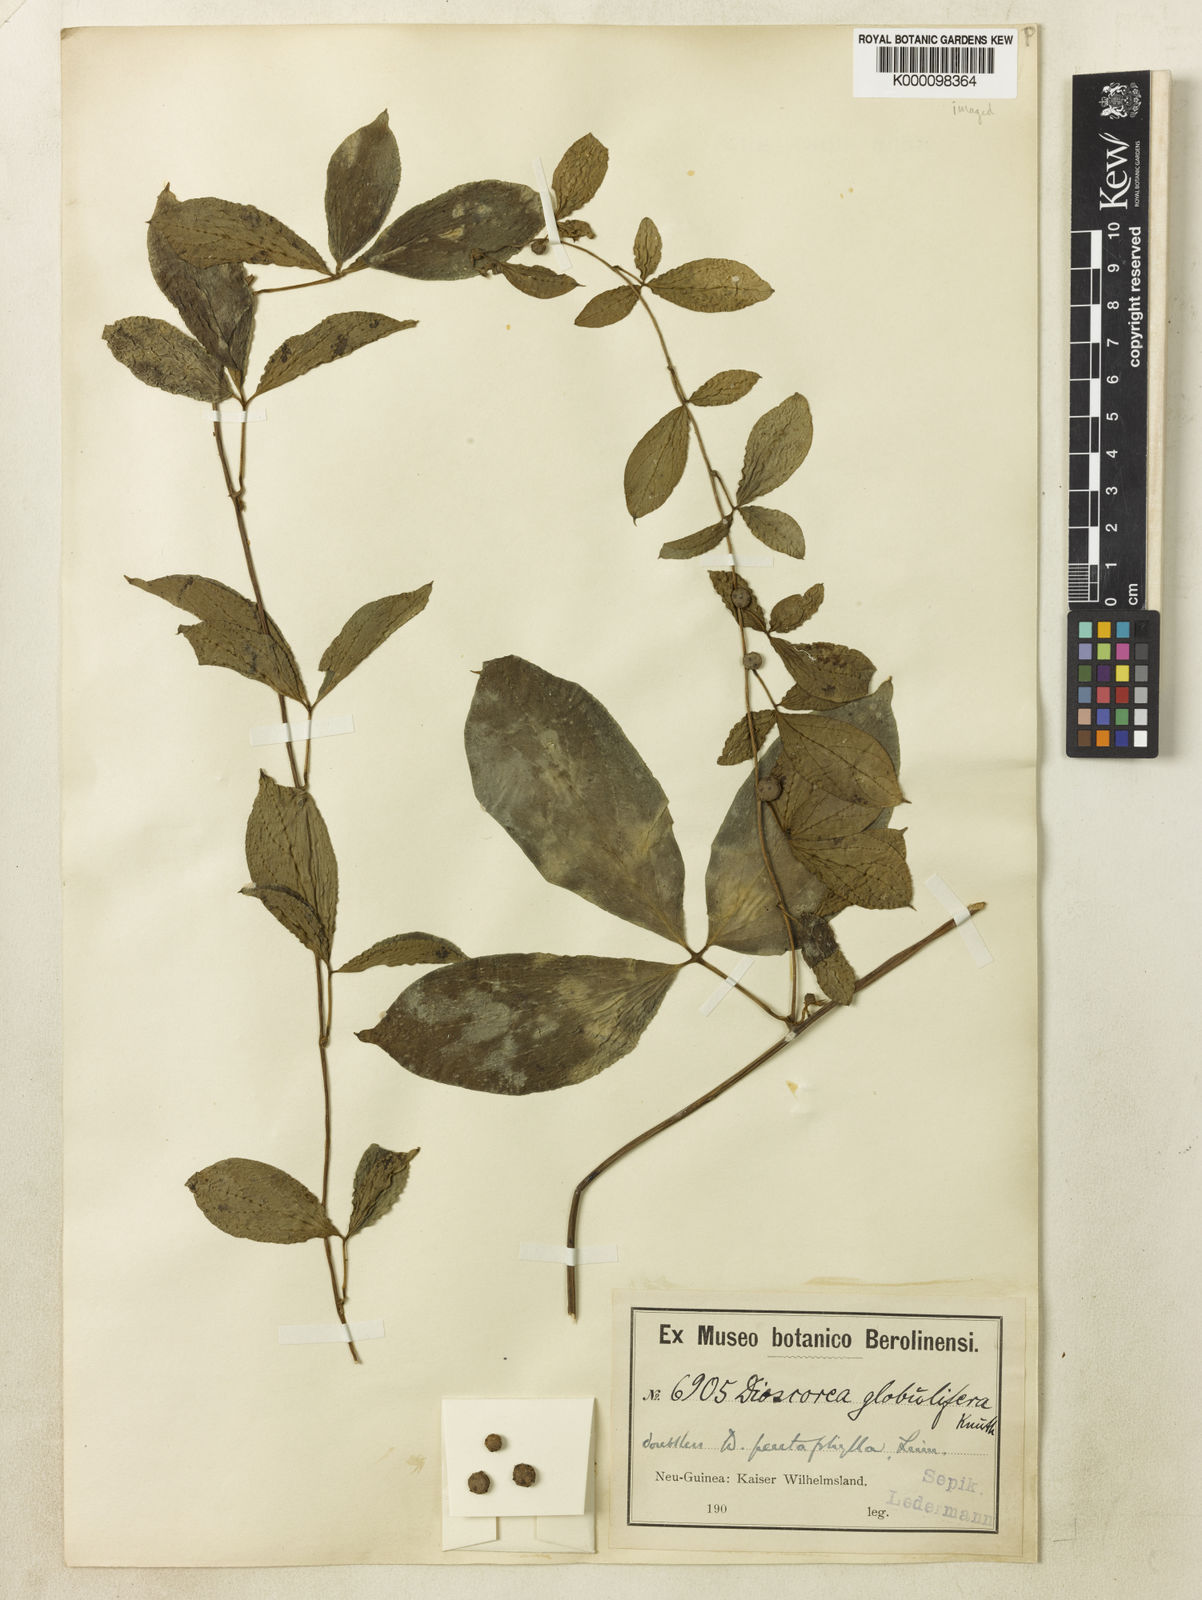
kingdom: Plantae
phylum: Tracheophyta
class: Liliopsida
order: Dioscoreales
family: Dioscoreaceae
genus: Dioscorea
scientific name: Dioscorea pentaphylla
